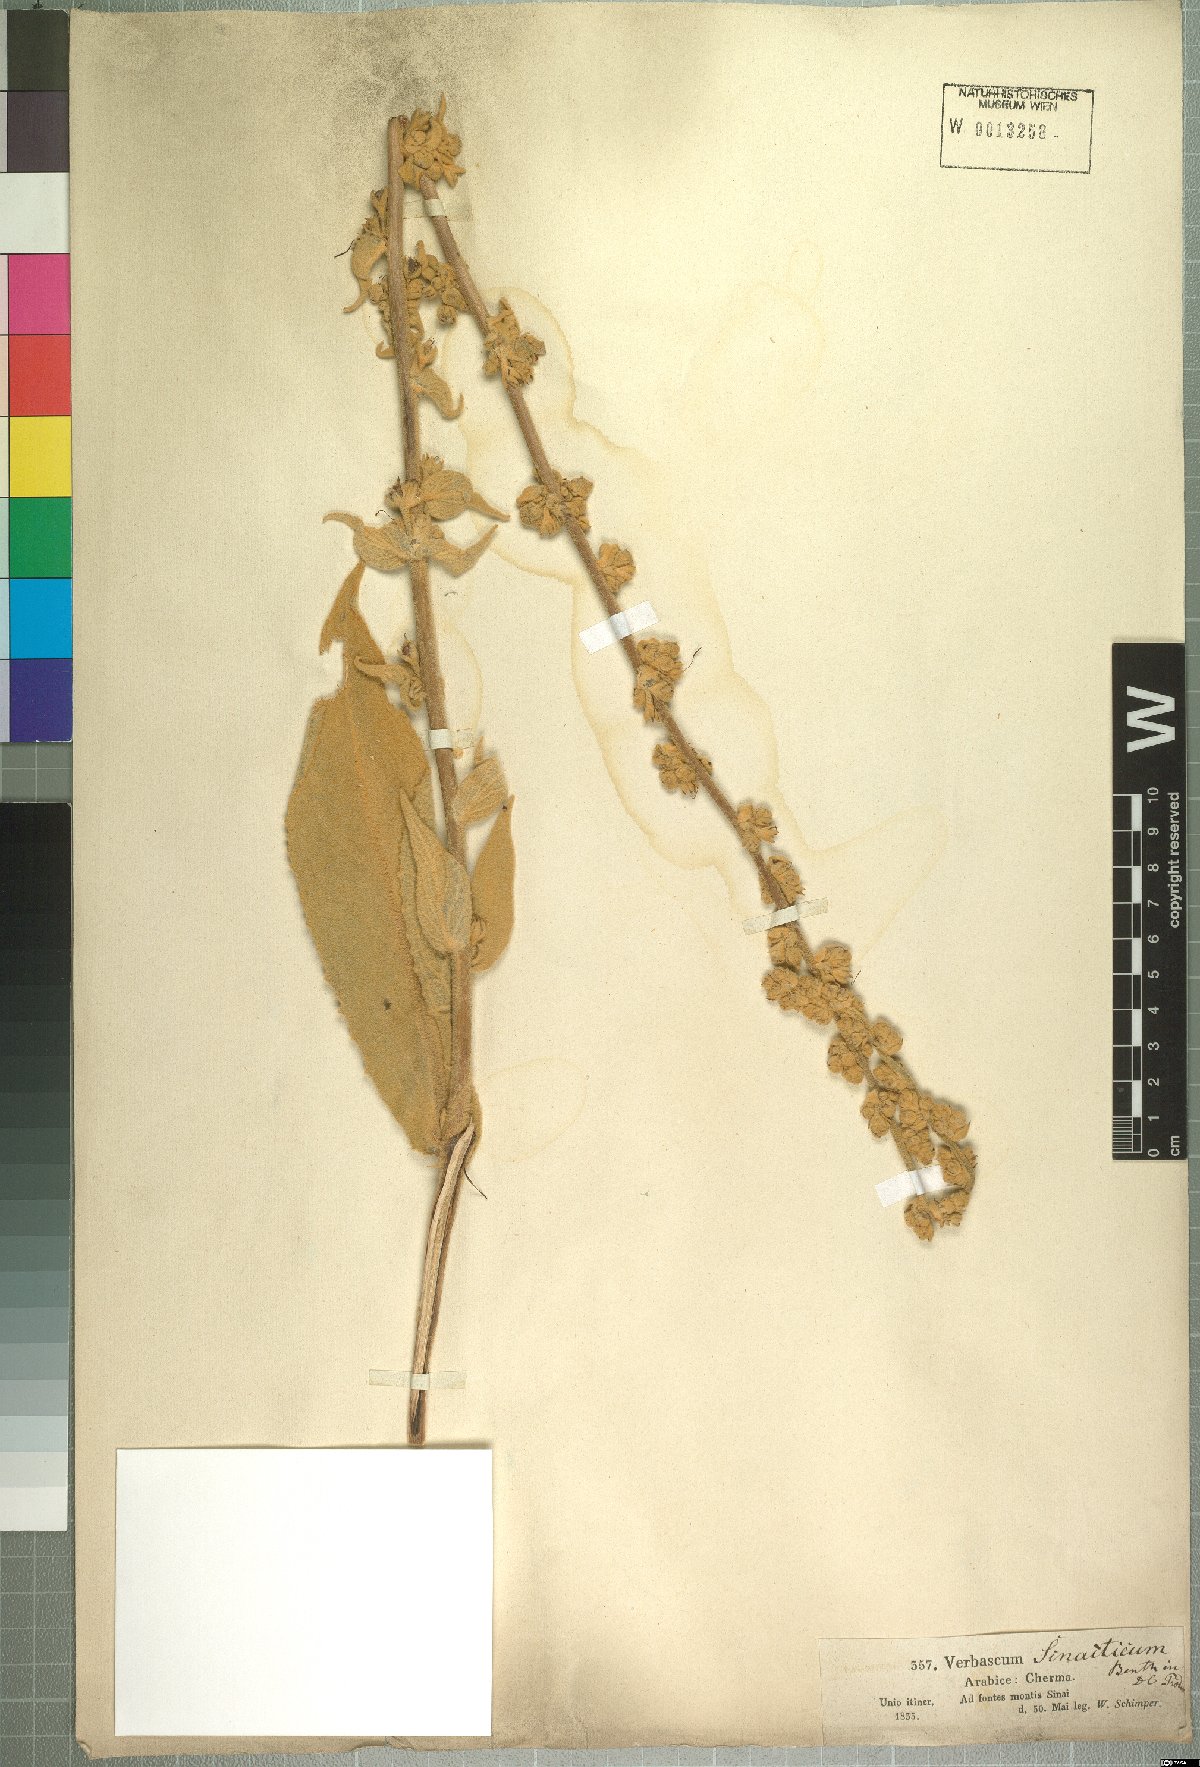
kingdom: Plantae
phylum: Tracheophyta
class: Magnoliopsida
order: Lamiales
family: Scrophulariaceae
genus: Verbascum
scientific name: Verbascum sinaiticum
